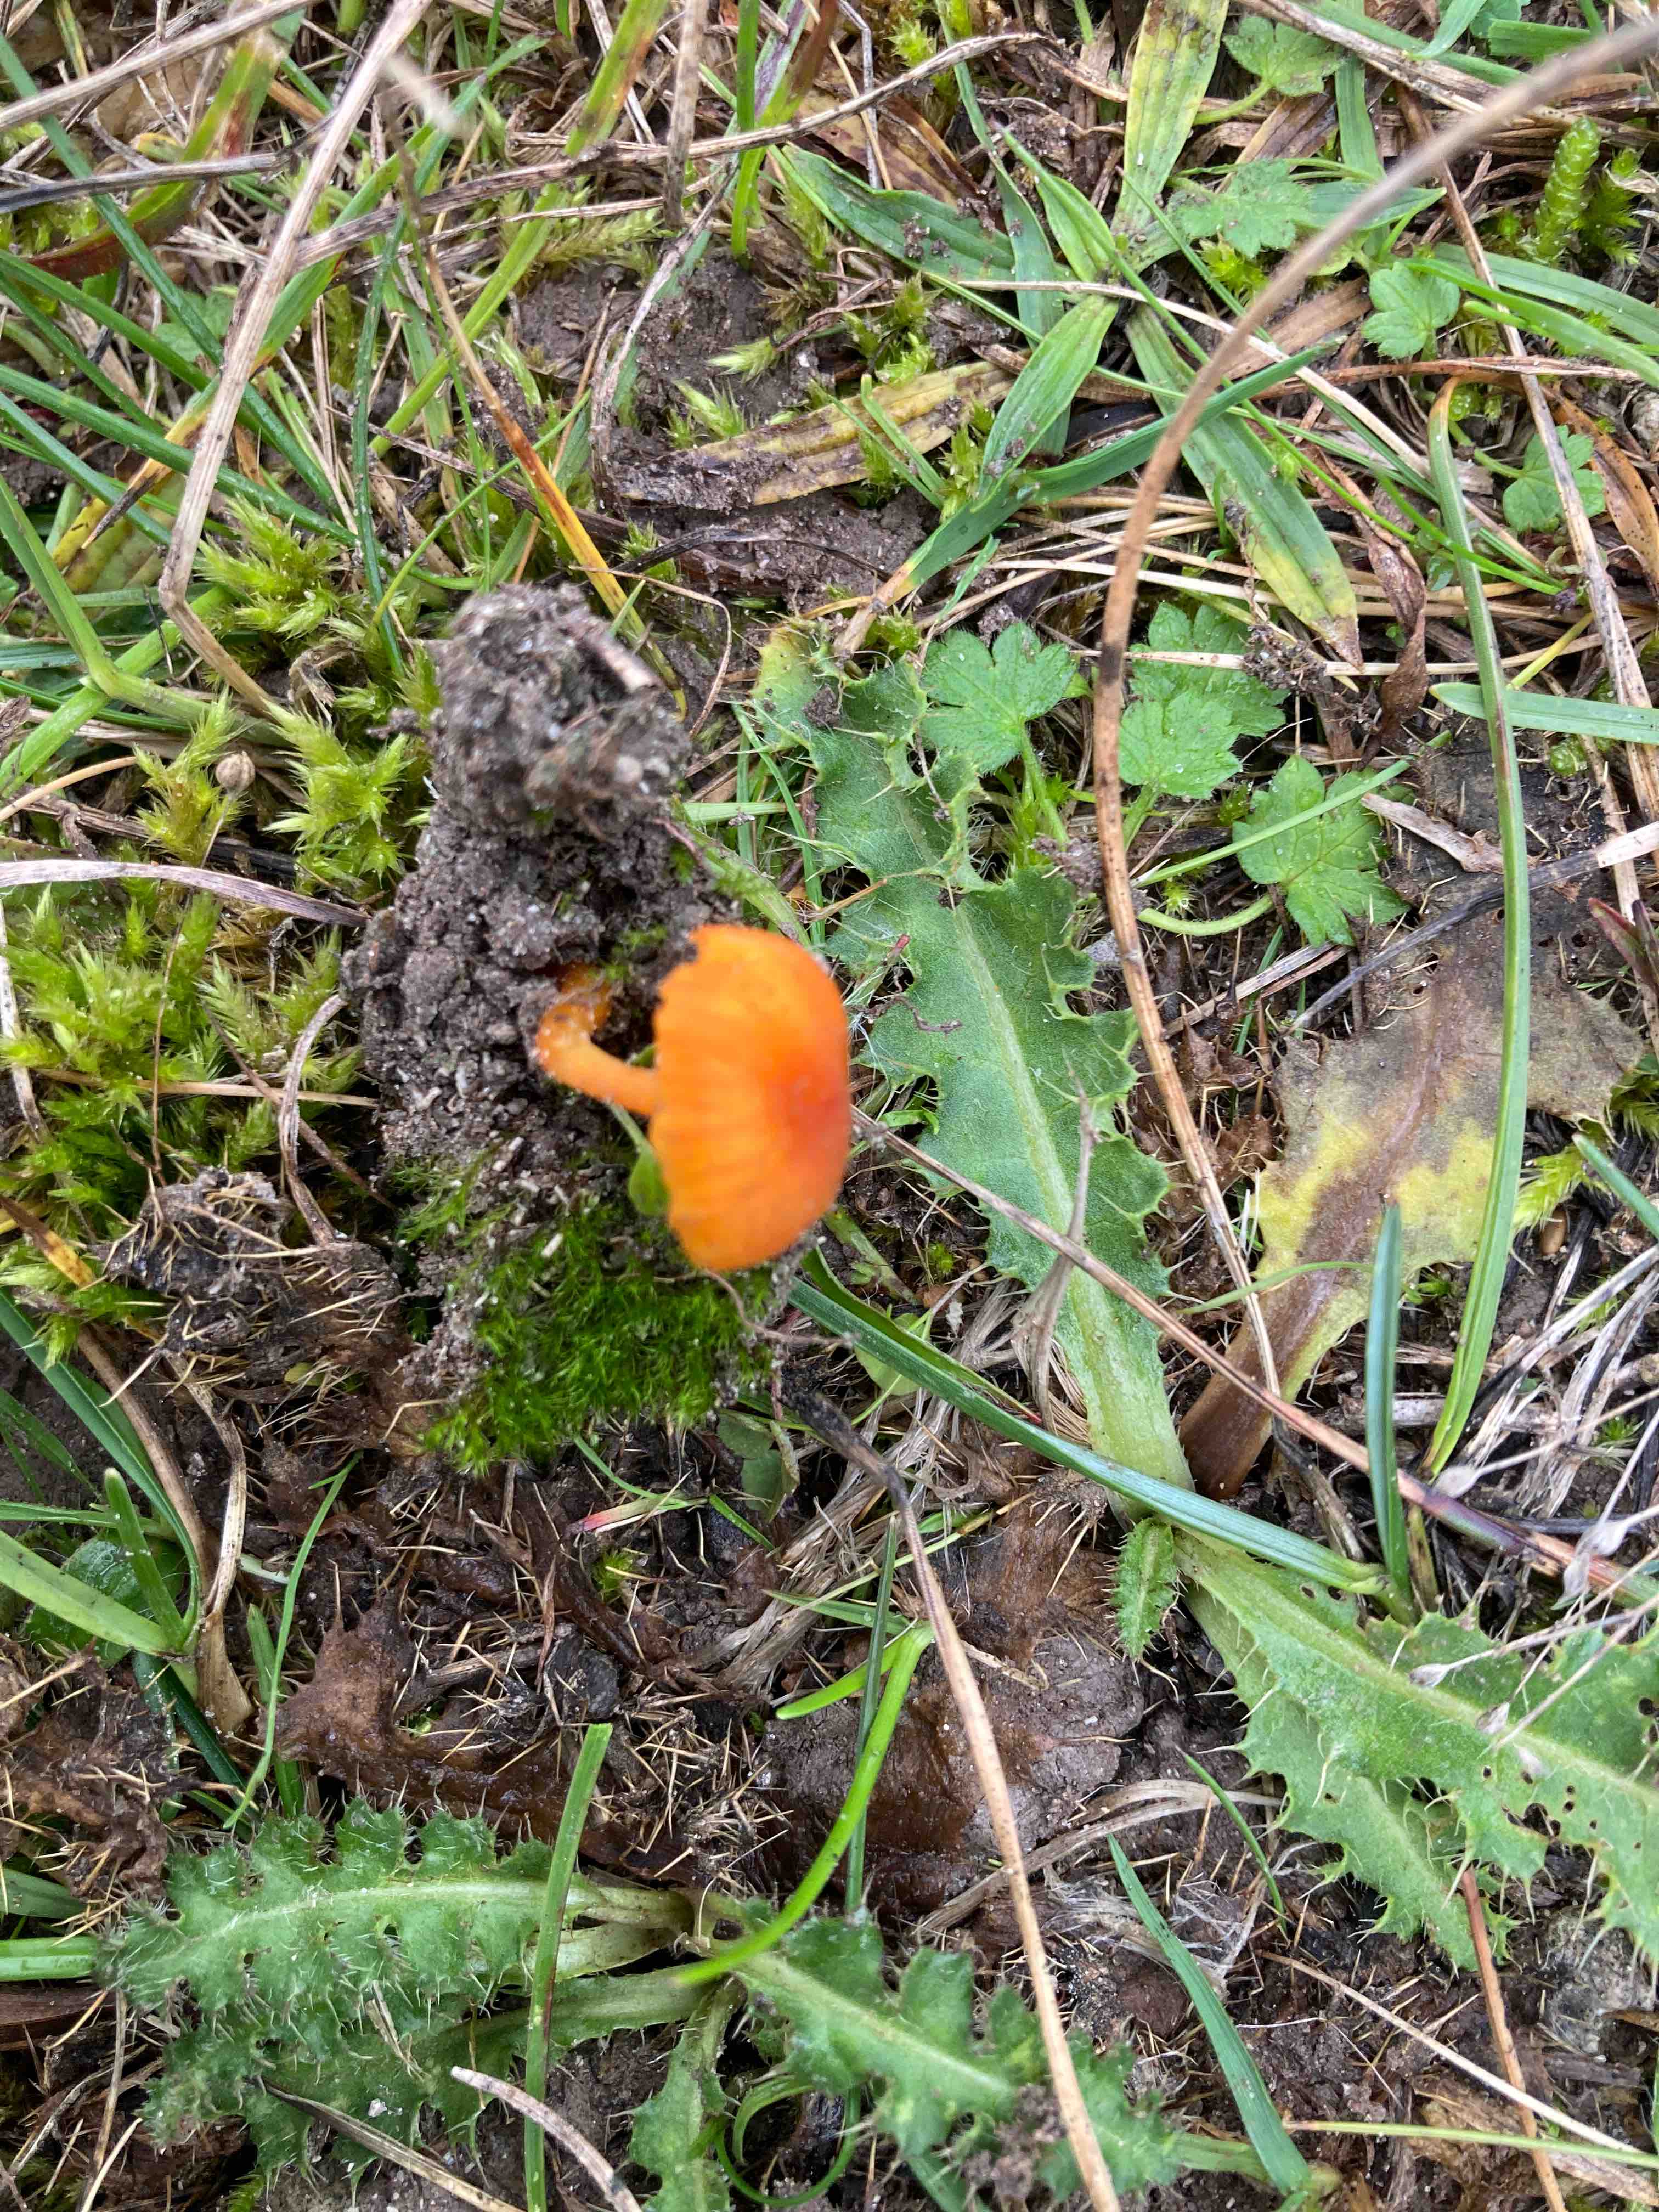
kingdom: Fungi
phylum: Basidiomycota
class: Agaricomycetes
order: Agaricales
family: Hygrophoraceae
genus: Hygrocybe
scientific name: Hygrocybe calciphila
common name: kalk-vokshat
